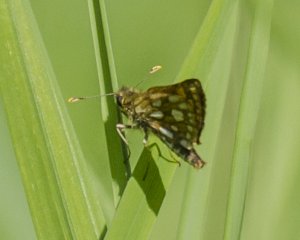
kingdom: Animalia
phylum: Arthropoda
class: Insecta
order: Lepidoptera
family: Hesperiidae
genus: Carterocephalus
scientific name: Carterocephalus palaemon
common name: Chequered Skipper
